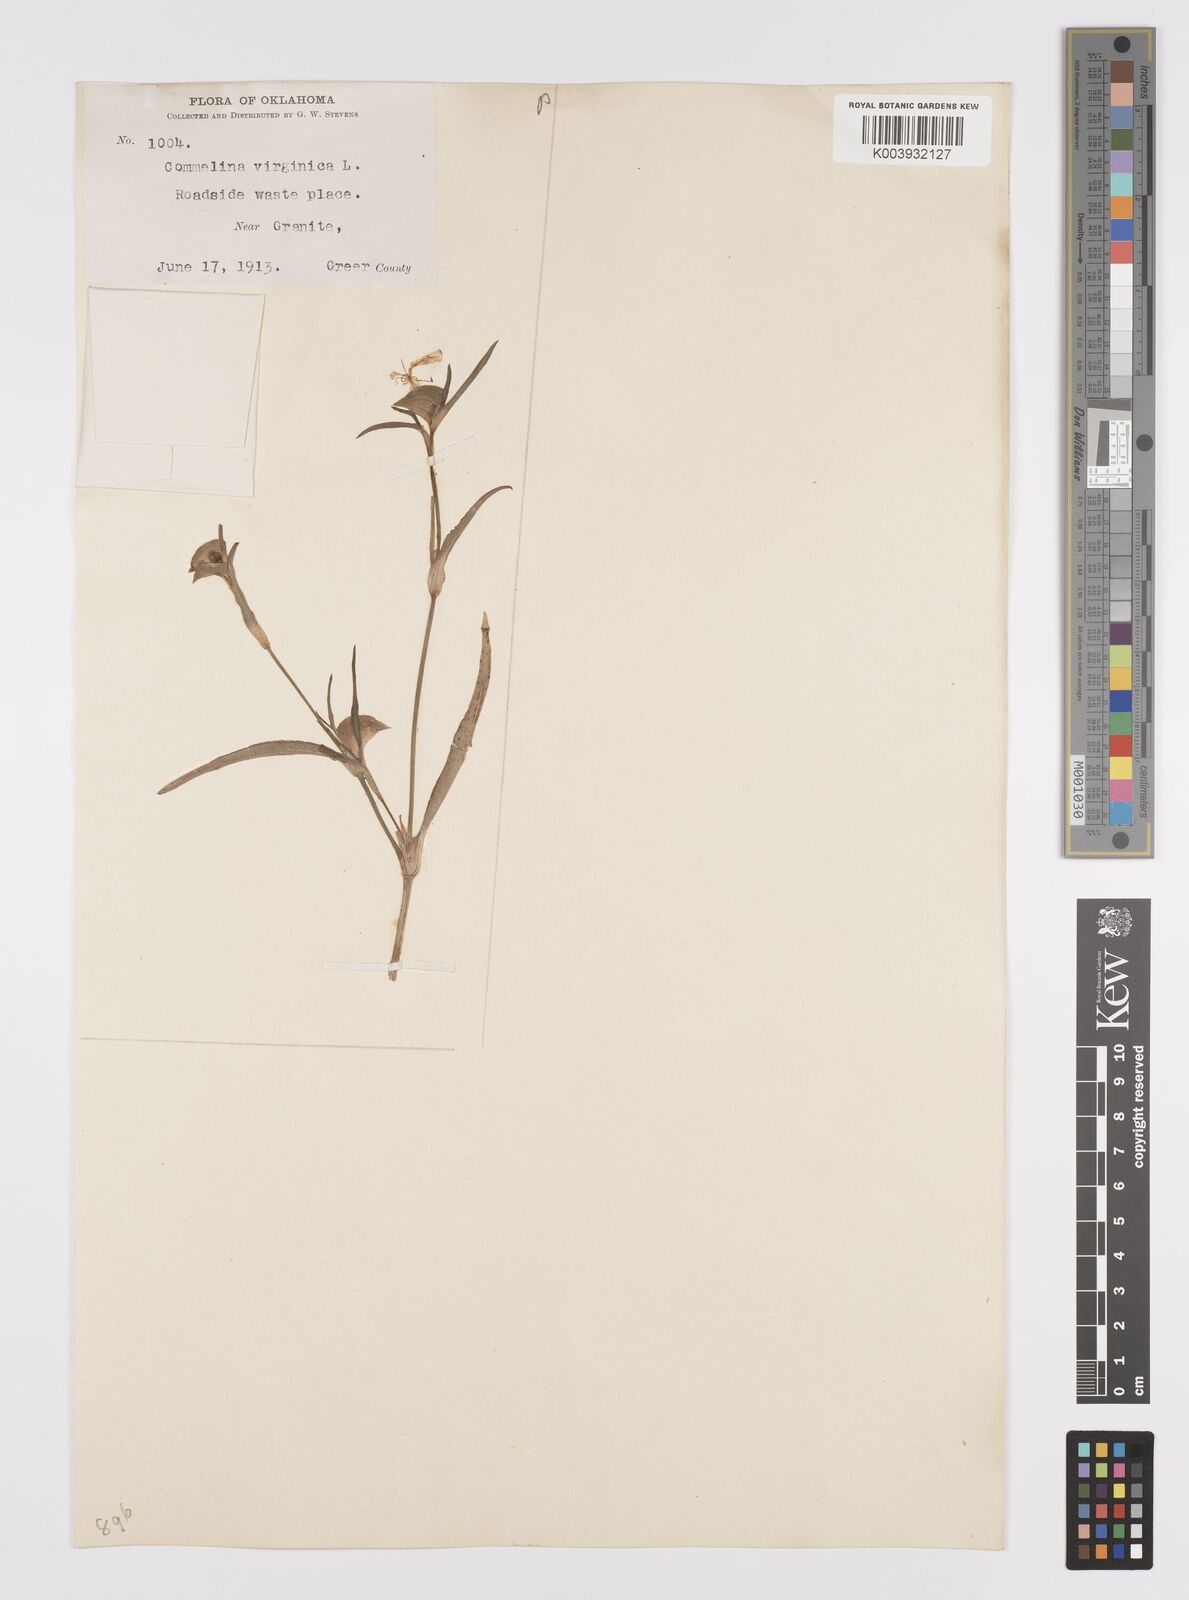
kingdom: Plantae
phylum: Tracheophyta
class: Liliopsida
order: Commelinales
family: Commelinaceae
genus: Commelina
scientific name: Commelina erecta
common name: Blousel blommetjie
